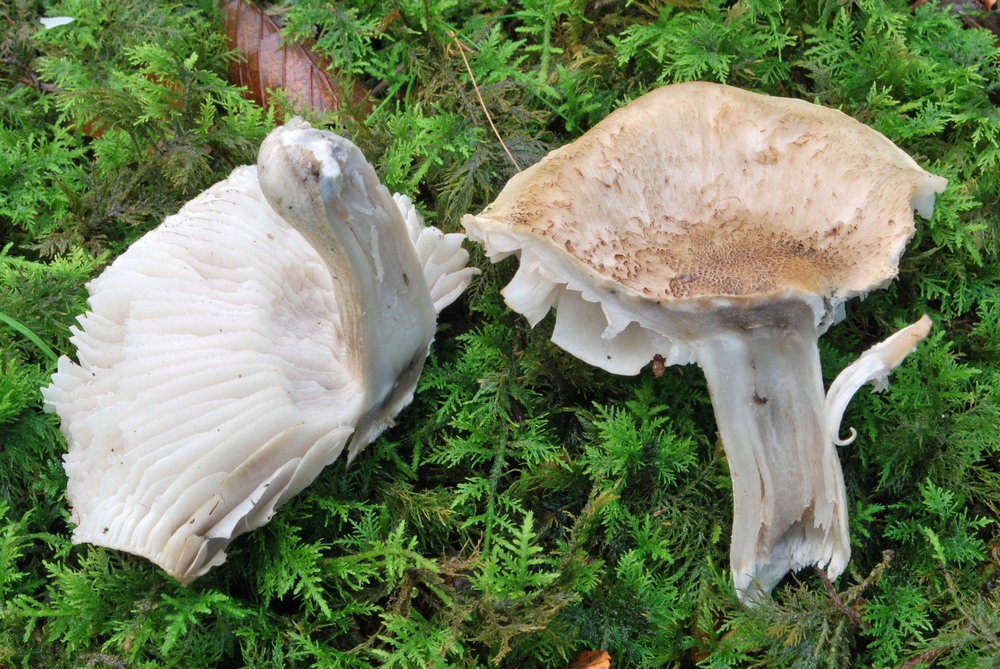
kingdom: Fungi
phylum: Basidiomycota
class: Agaricomycetes
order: Agaricales
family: Tricholomataceae
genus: Tricholoma
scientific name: Tricholoma basirubens
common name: rødfodet ridderhat
